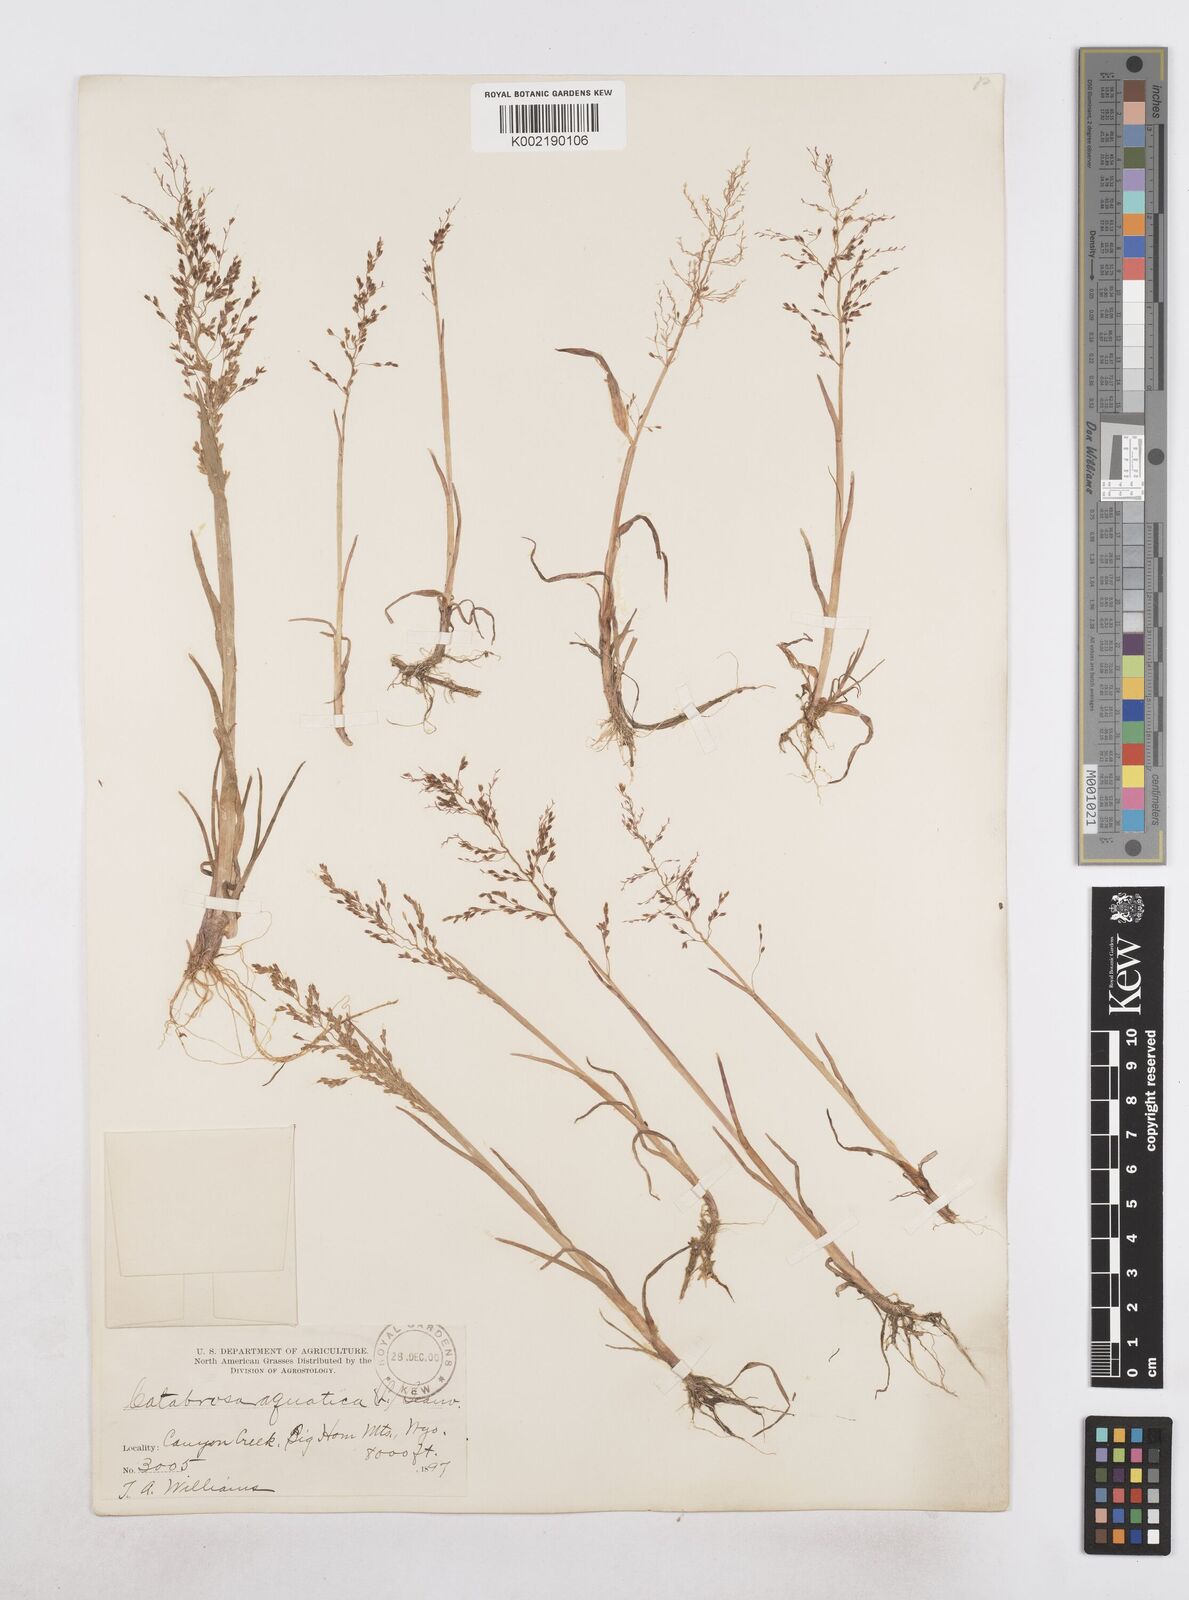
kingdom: Plantae
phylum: Tracheophyta
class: Liliopsida
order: Poales
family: Poaceae
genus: Catabrosa
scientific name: Catabrosa aquatica
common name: Whorl-grass
